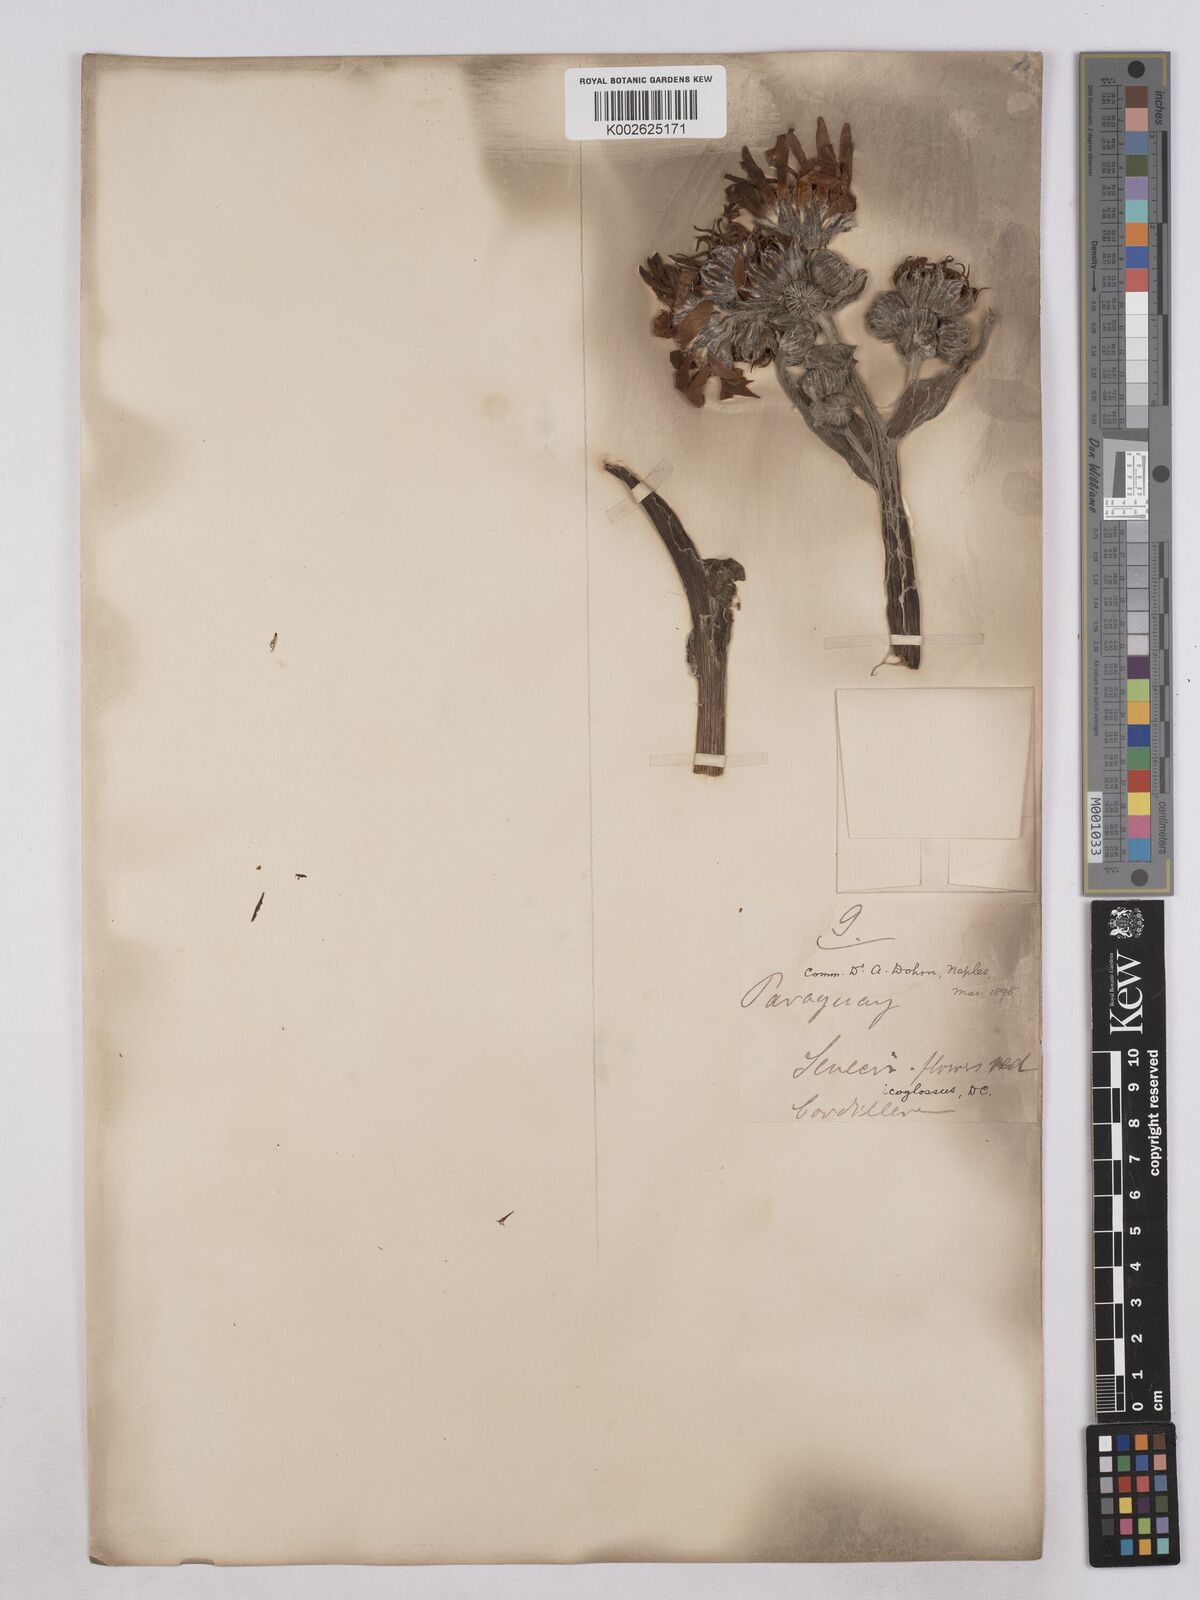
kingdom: Plantae
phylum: Tracheophyta
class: Magnoliopsida
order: Asterales
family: Asteraceae
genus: Senecio
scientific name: Senecio icoglossus
